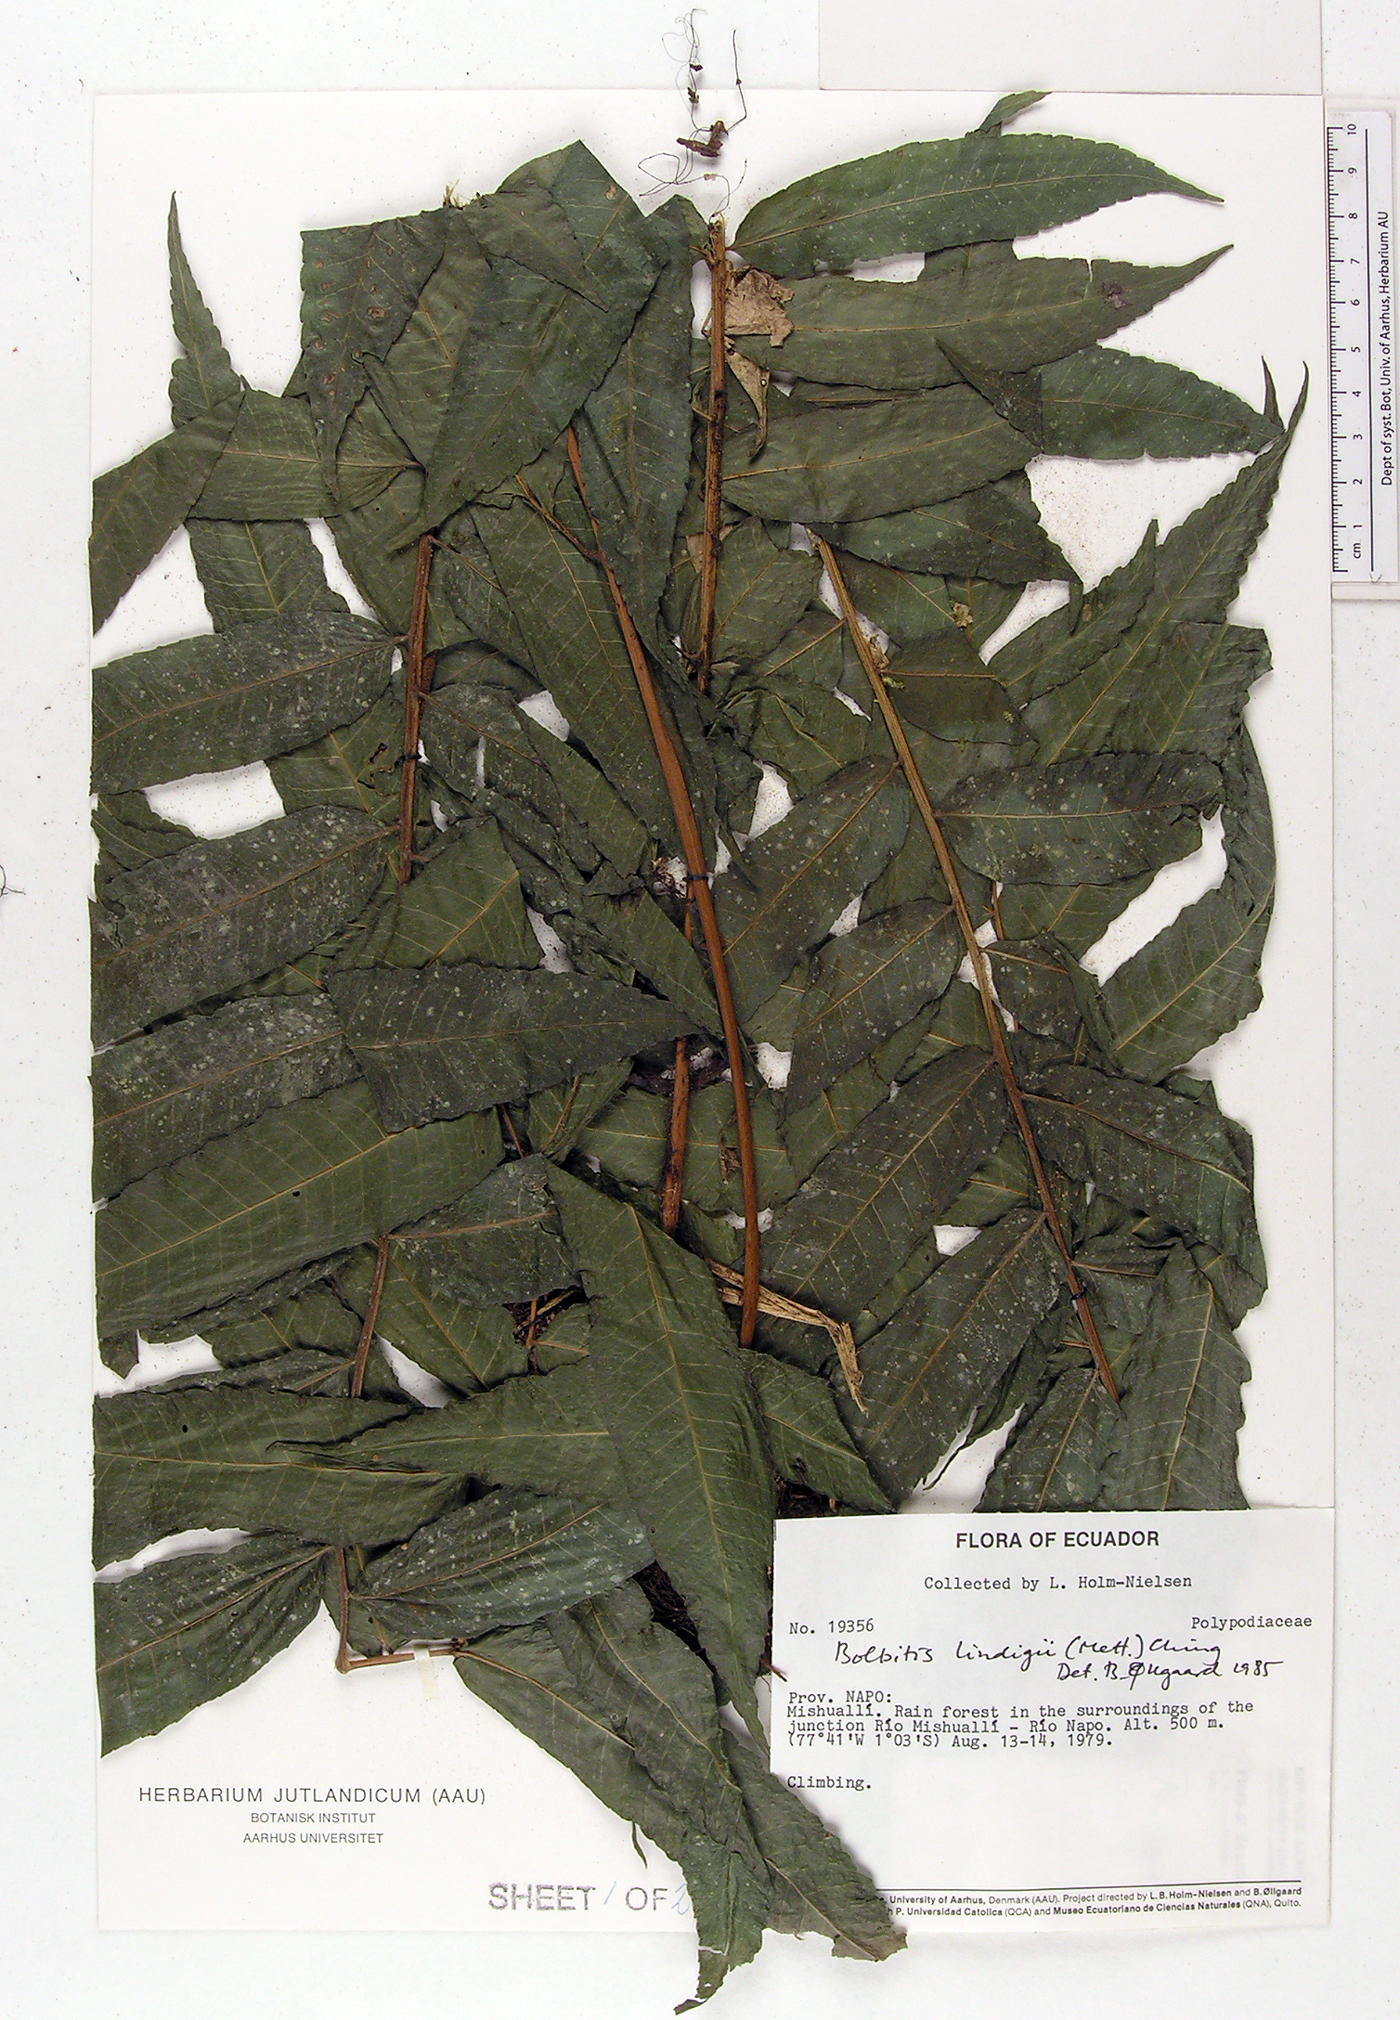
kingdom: Plantae
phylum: Tracheophyta
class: Polypodiopsida
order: Polypodiales
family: Dryopteridaceae
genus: Mickelia
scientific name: Mickelia lindigii
